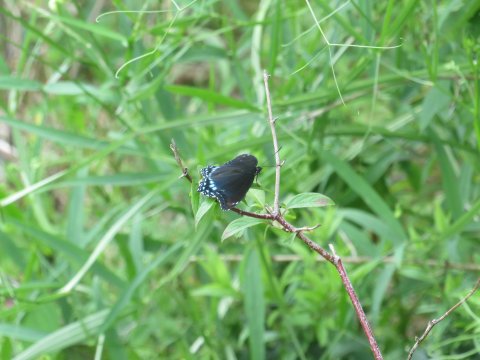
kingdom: Animalia
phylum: Arthropoda
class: Insecta
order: Lepidoptera
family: Nymphalidae
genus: Limenitis
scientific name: Limenitis arthemis
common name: Red-spotted Admiral
